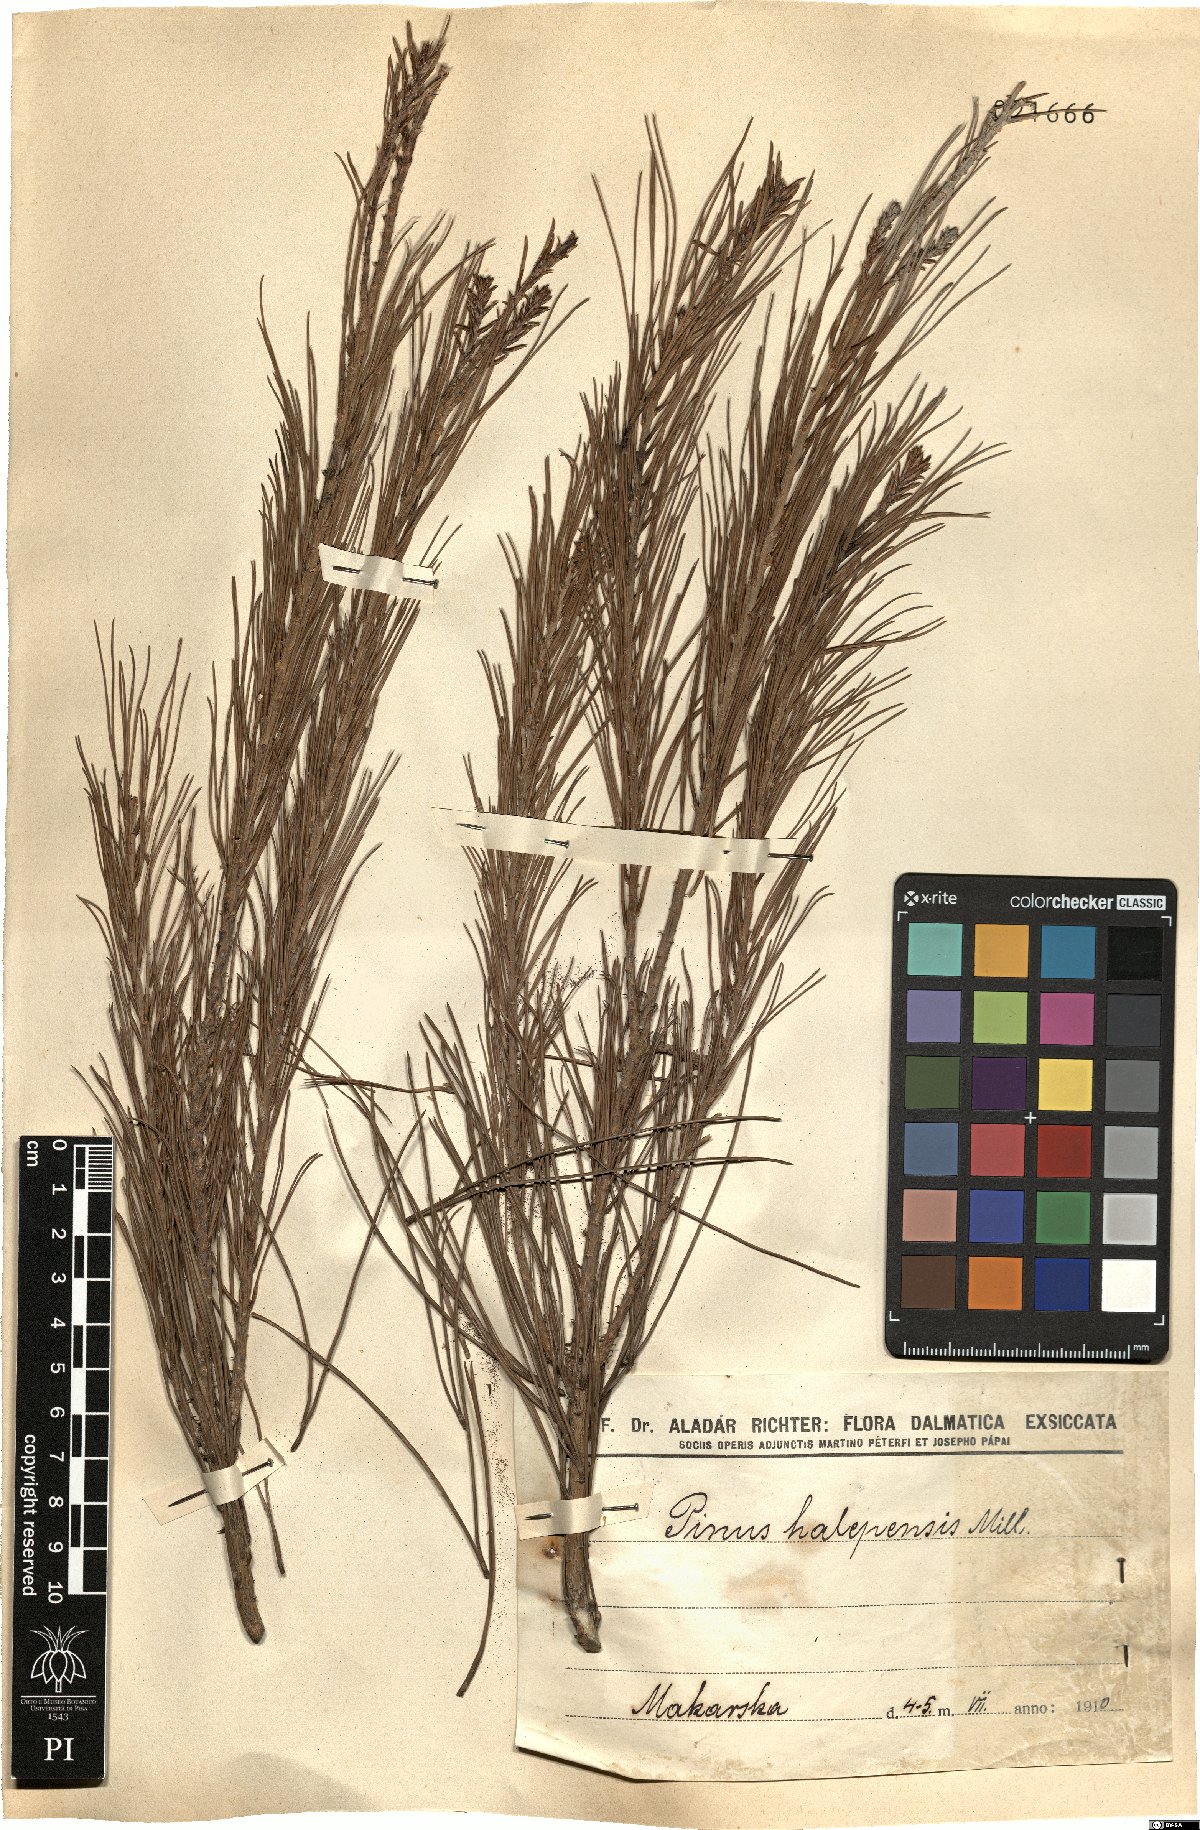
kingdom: Plantae
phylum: Tracheophyta
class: Pinopsida
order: Pinales
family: Pinaceae
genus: Pinus
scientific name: Pinus halepensis
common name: Aleppo pine
